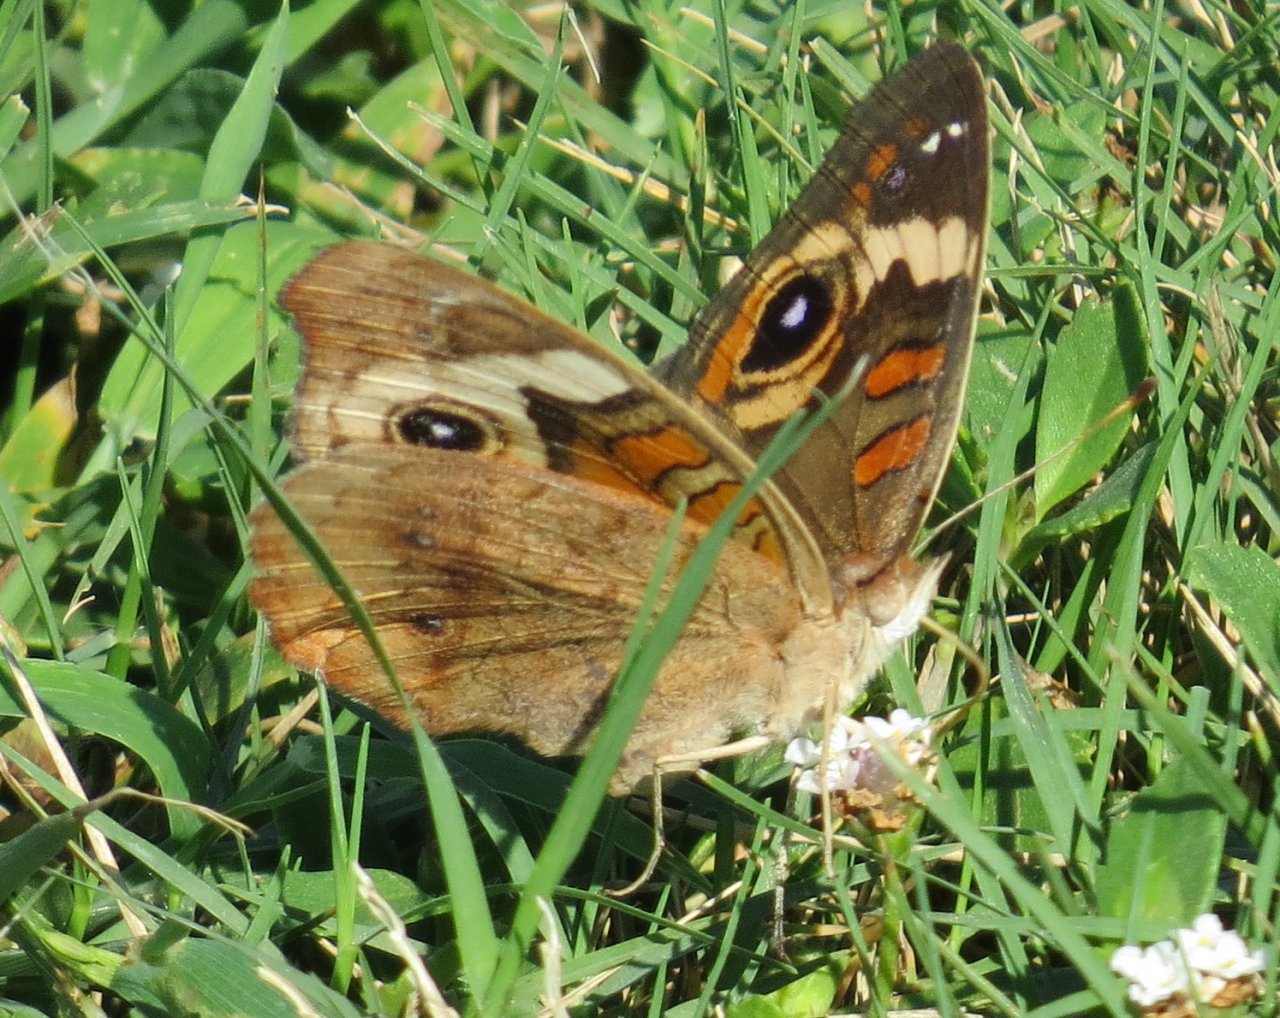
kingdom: Animalia
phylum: Arthropoda
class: Insecta
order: Lepidoptera
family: Nymphalidae
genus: Junonia
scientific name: Junonia coenia
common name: Common Buckeye
